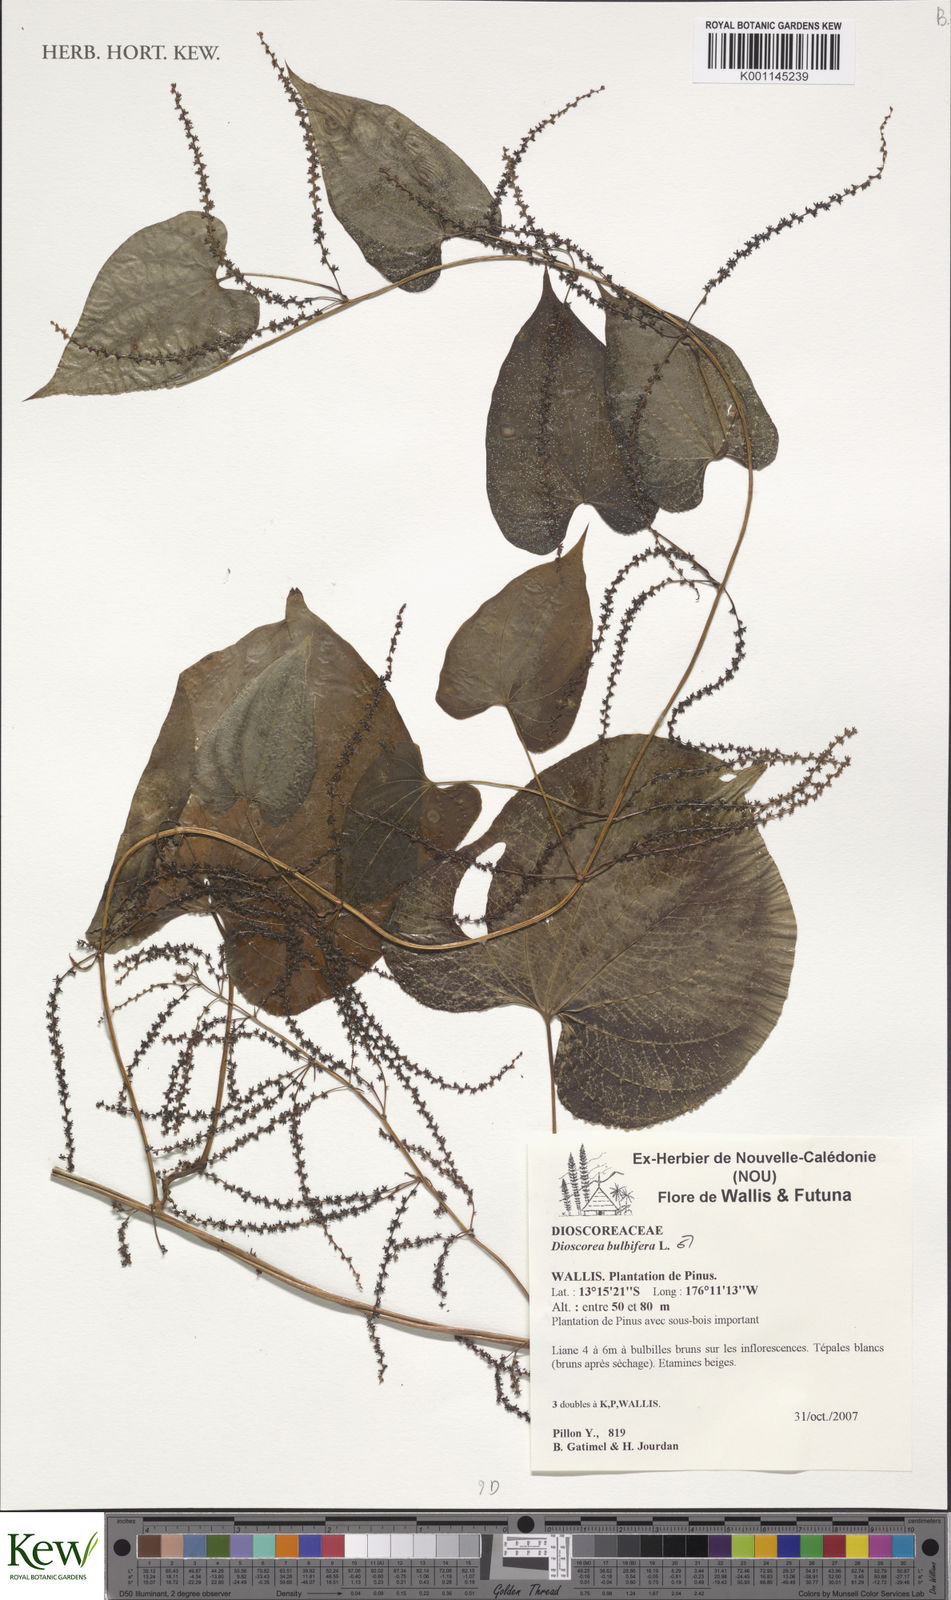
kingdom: Plantae
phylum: Tracheophyta
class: Liliopsida
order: Dioscoreales
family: Dioscoreaceae
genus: Dioscorea
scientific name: Dioscorea bulbifera
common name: Air yam
